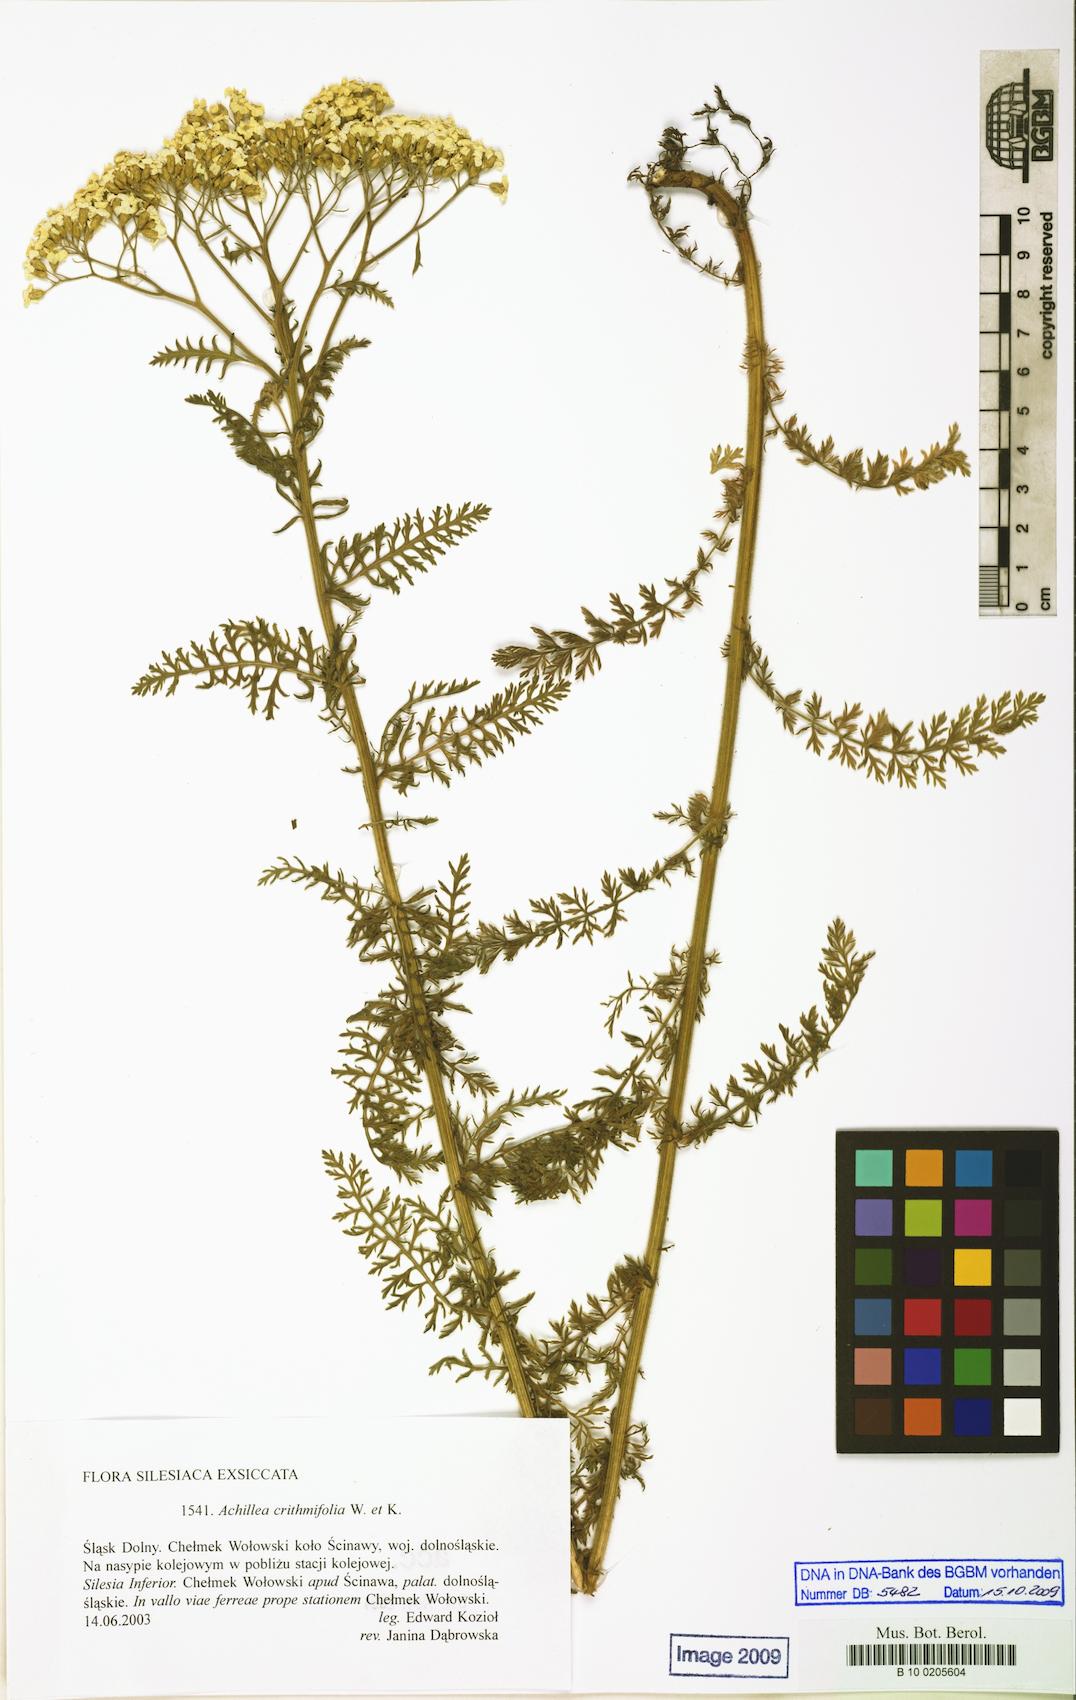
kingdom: Plantae
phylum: Tracheophyta
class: Magnoliopsida
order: Asterales
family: Asteraceae
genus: Achillea
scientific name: Achillea crithmifolia
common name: Yarrow
